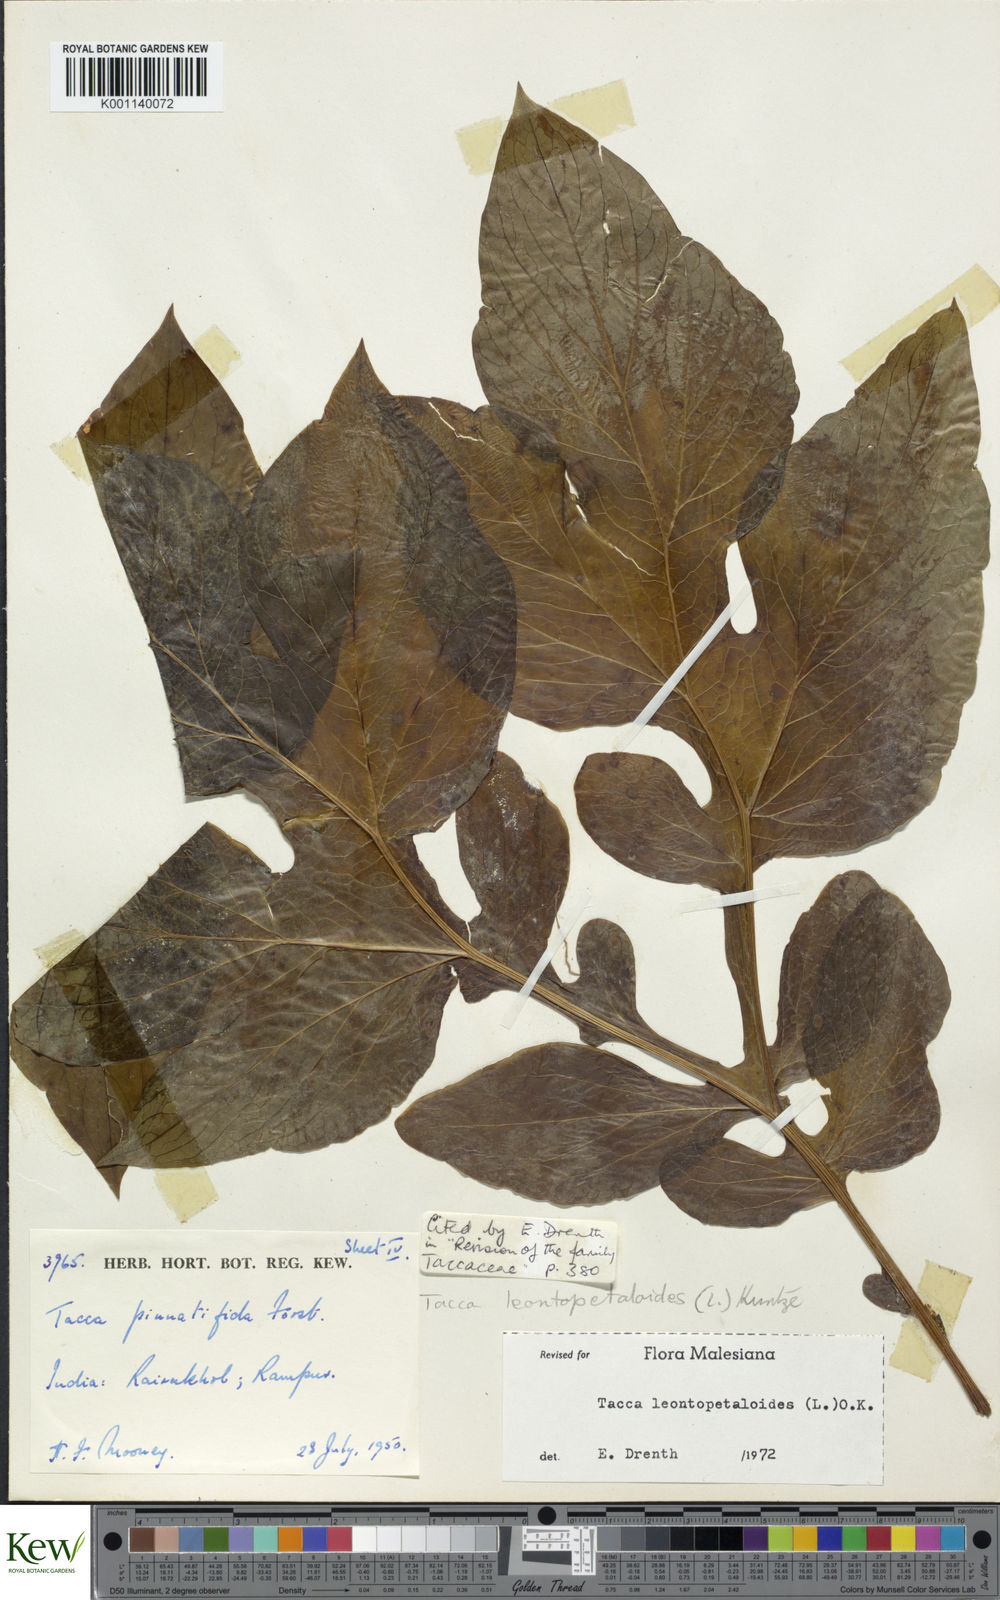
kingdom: Plantae
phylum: Tracheophyta
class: Liliopsida
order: Dioscoreales
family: Dioscoreaceae
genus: Tacca
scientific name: Tacca leontopetaloides
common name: Arrowroot
